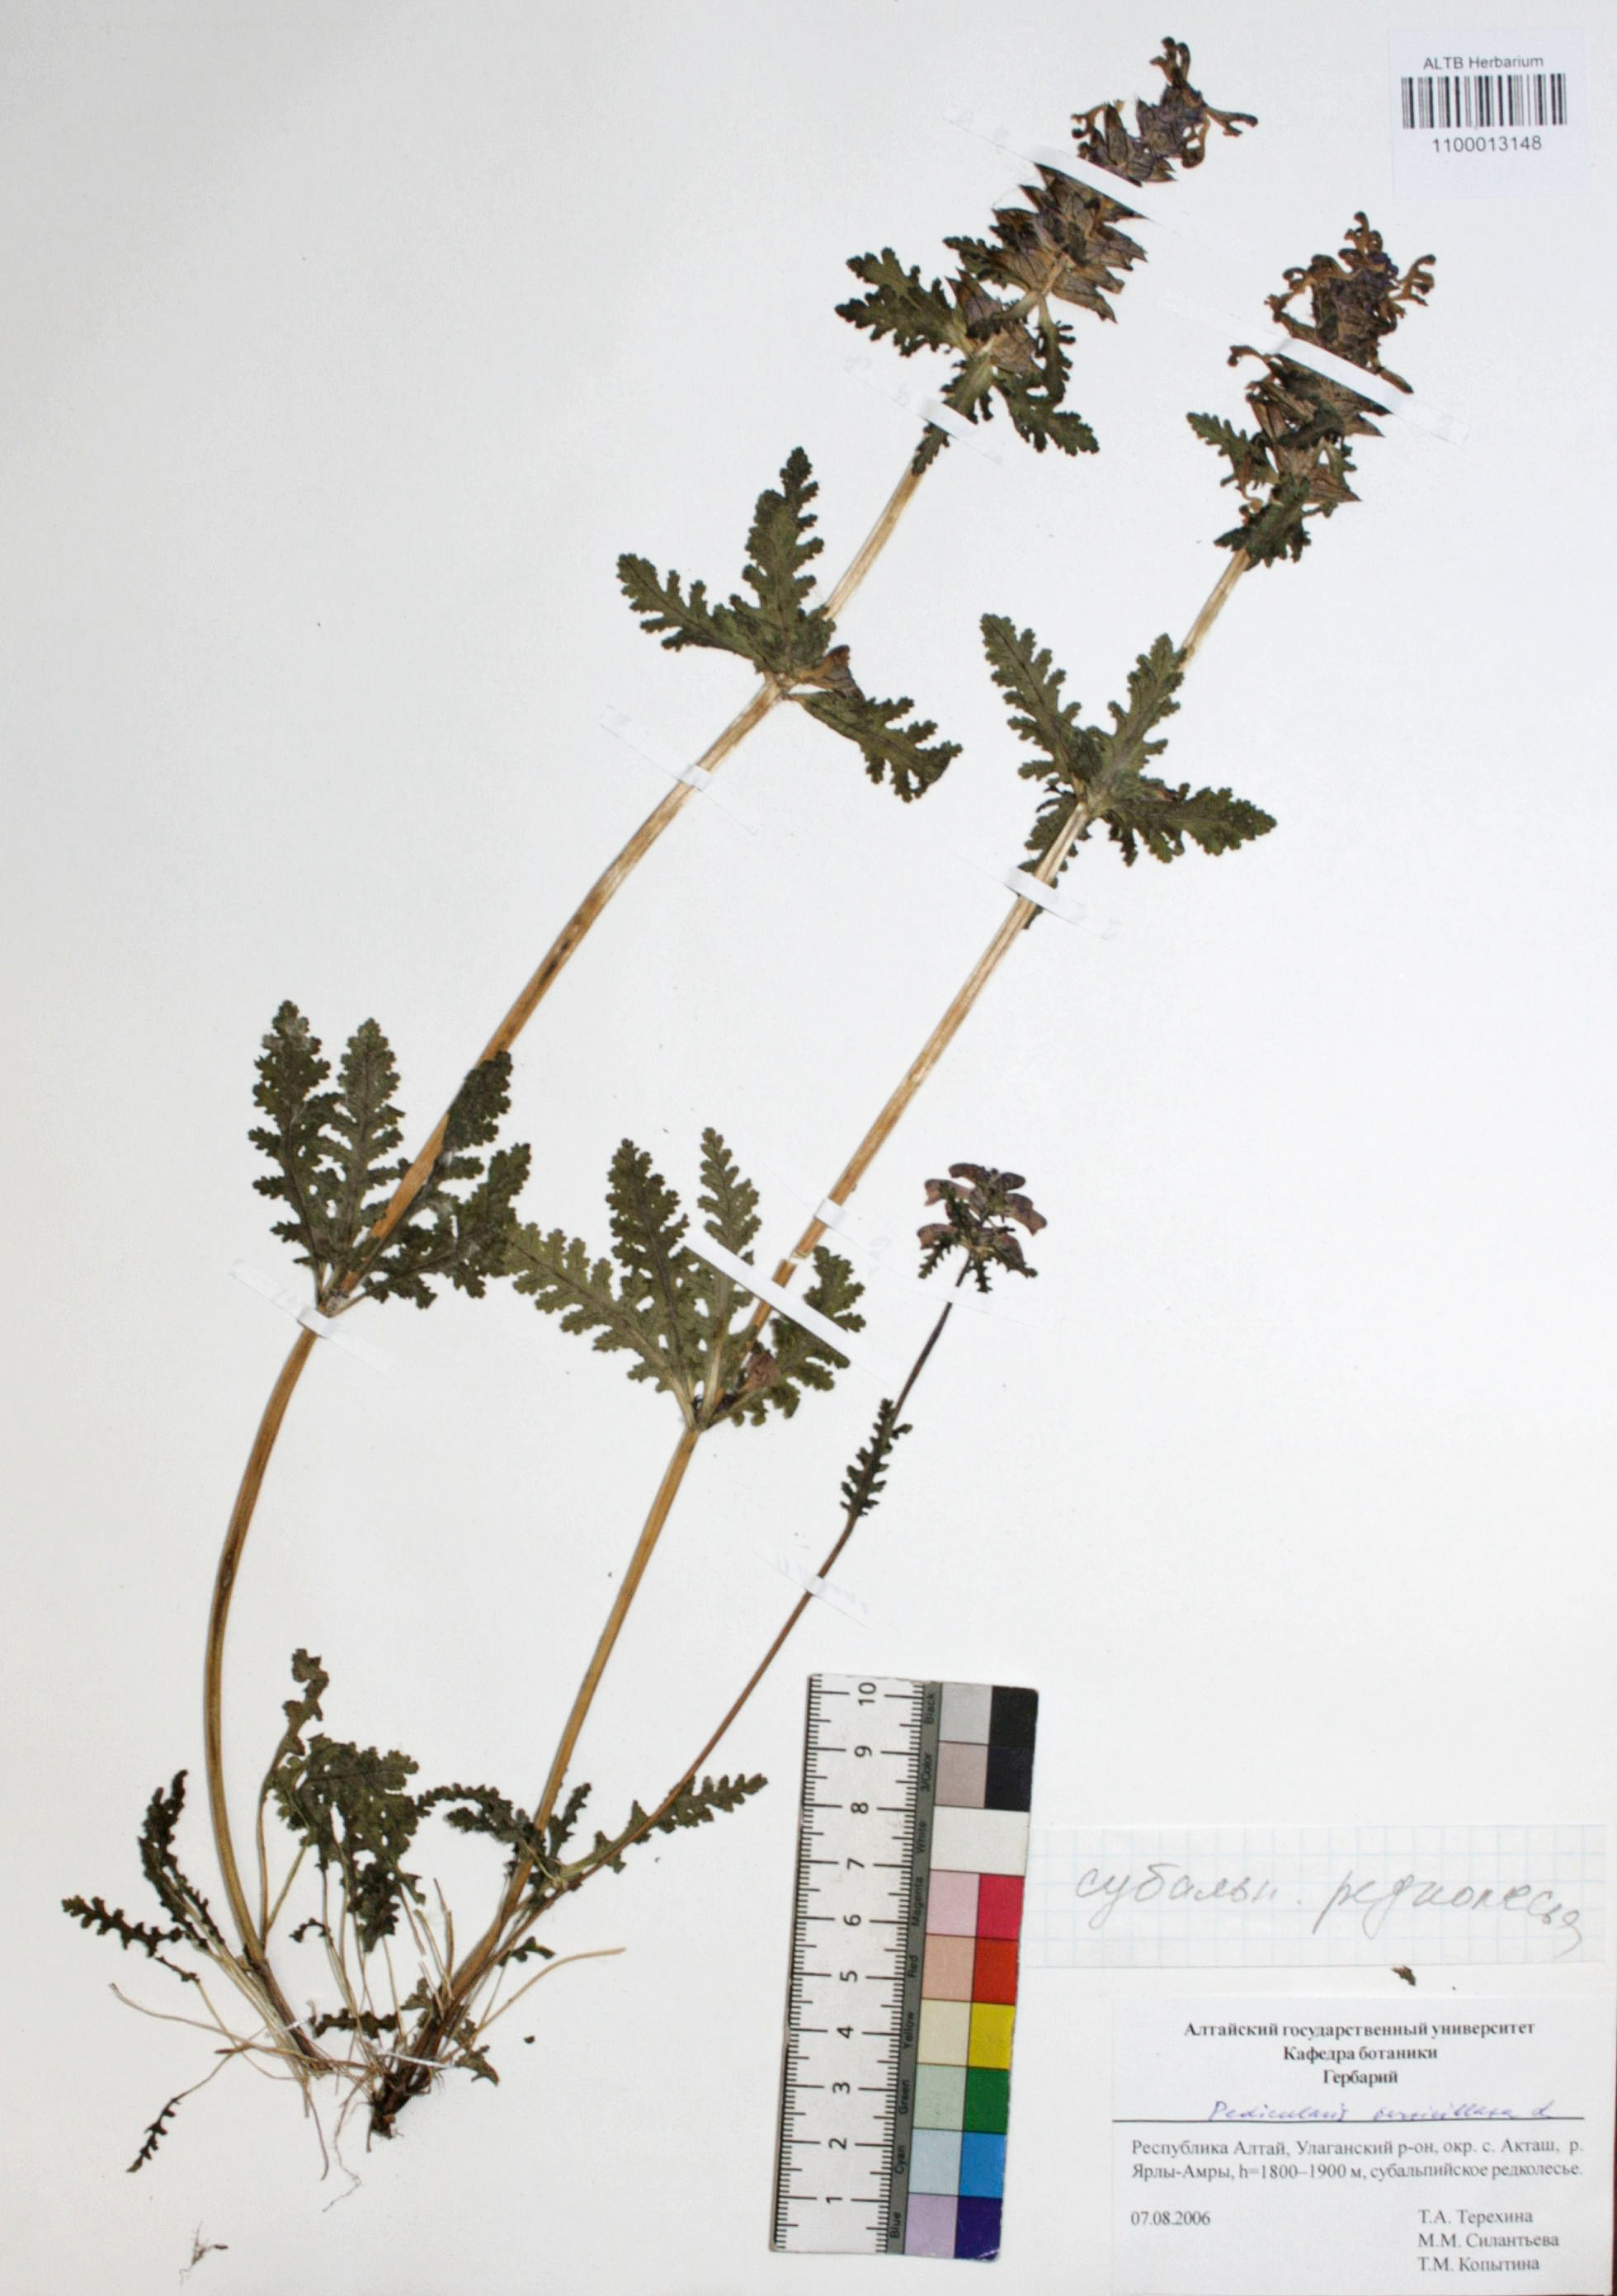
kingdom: Plantae
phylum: Tracheophyta
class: Magnoliopsida
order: Lamiales
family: Orobanchaceae
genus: Pedicularis
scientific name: Pedicularis verticillata
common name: Whorled lousewort
